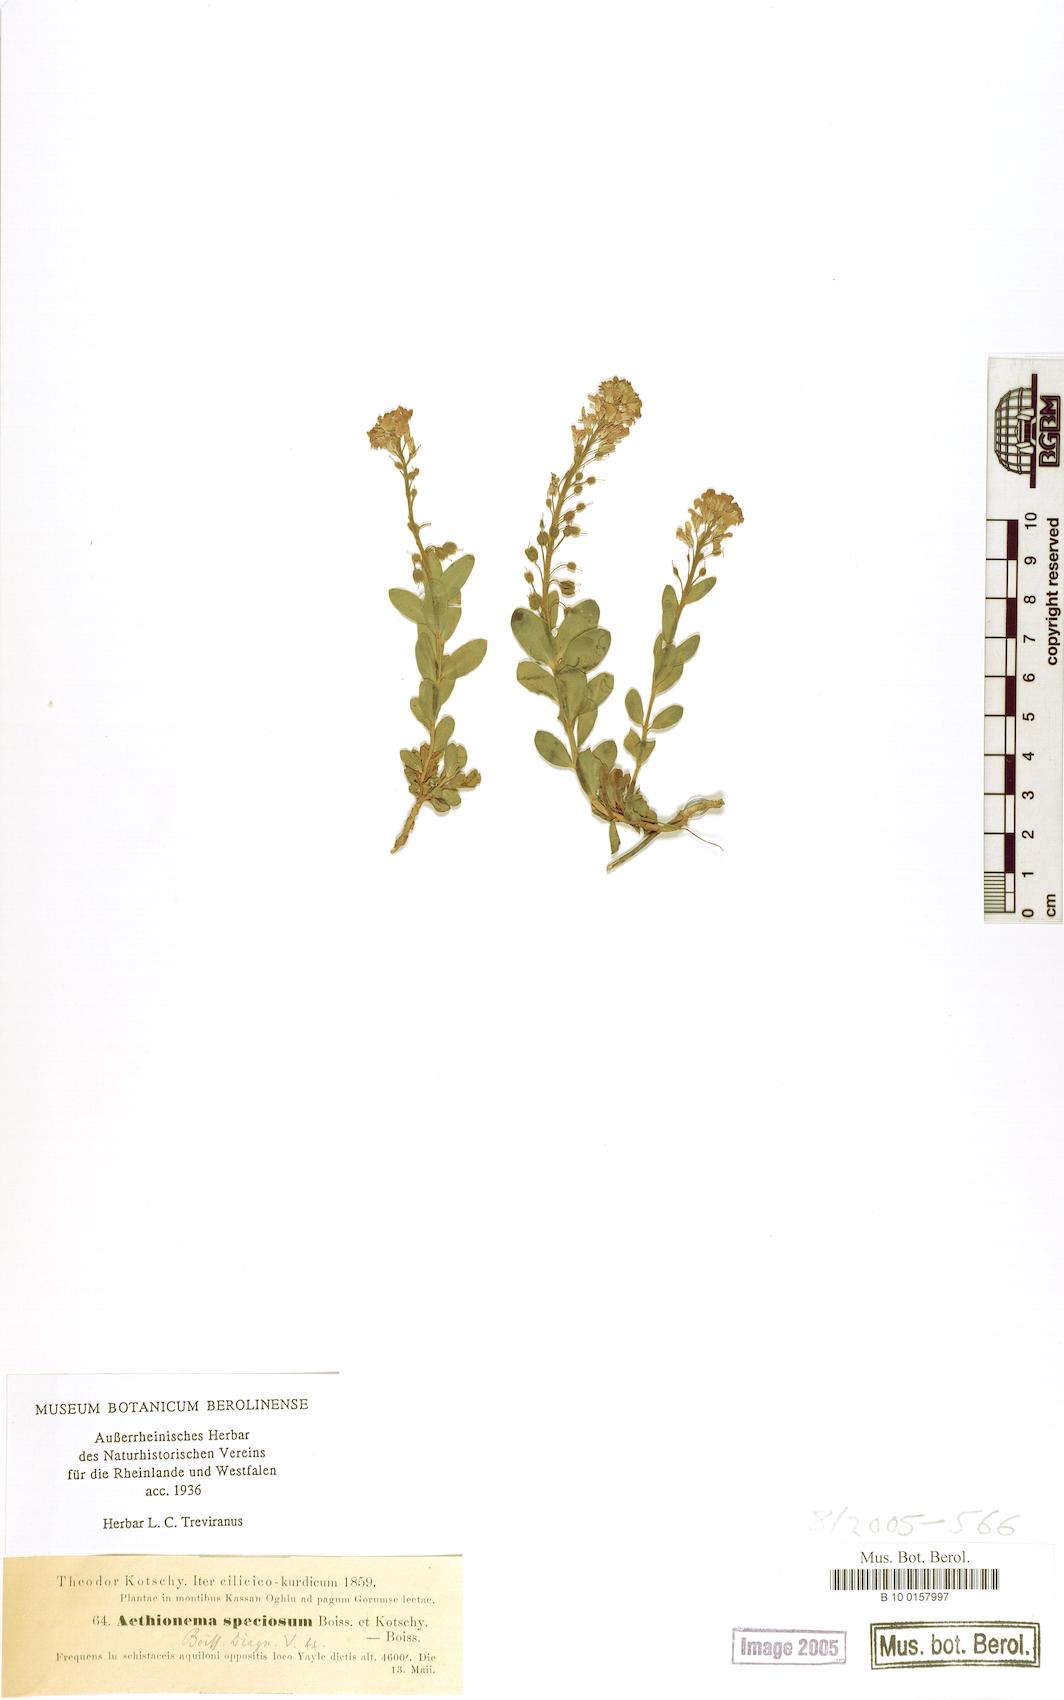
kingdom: Plantae
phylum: Tracheophyta
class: Magnoliopsida
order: Brassicales
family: Brassicaceae
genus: Aethionema
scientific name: Aethionema speciosum
